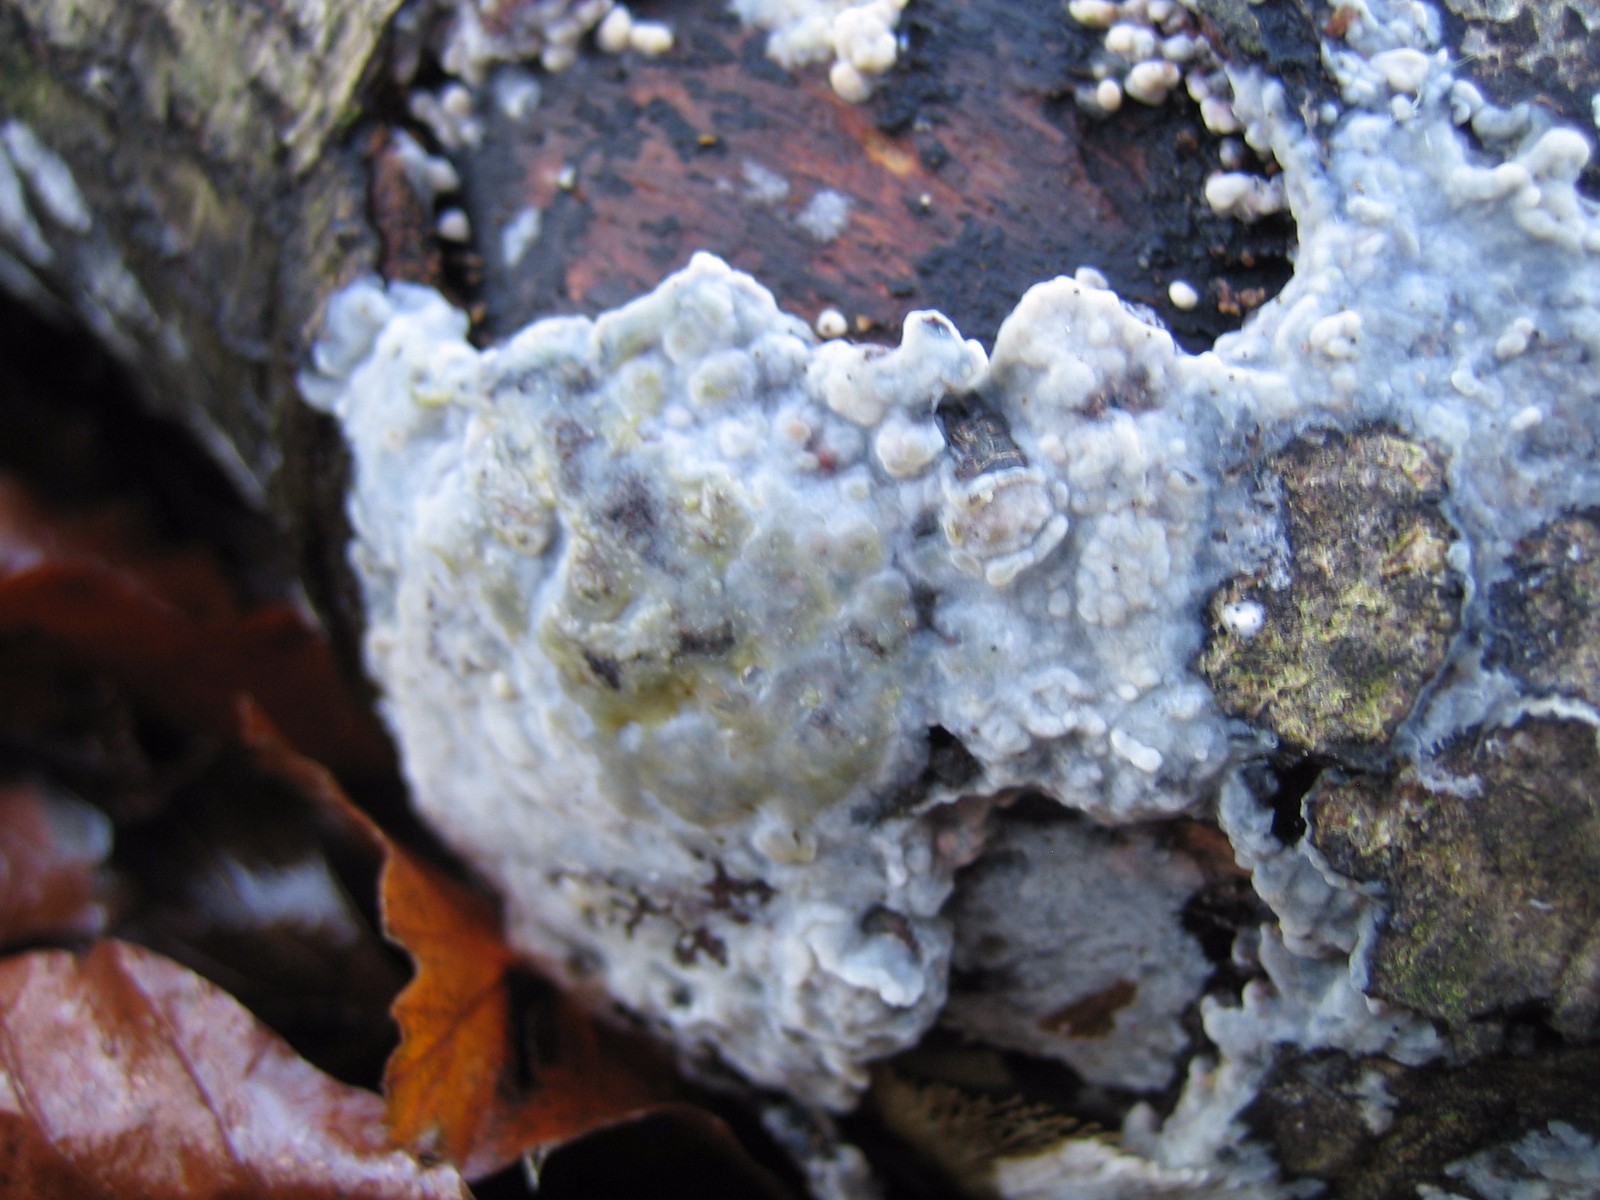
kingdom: Fungi
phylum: Basidiomycota
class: Agaricomycetes
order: Agaricales
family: Radulomycetaceae
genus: Radulomyces
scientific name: Radulomyces confluens
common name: glat naftalinskind
